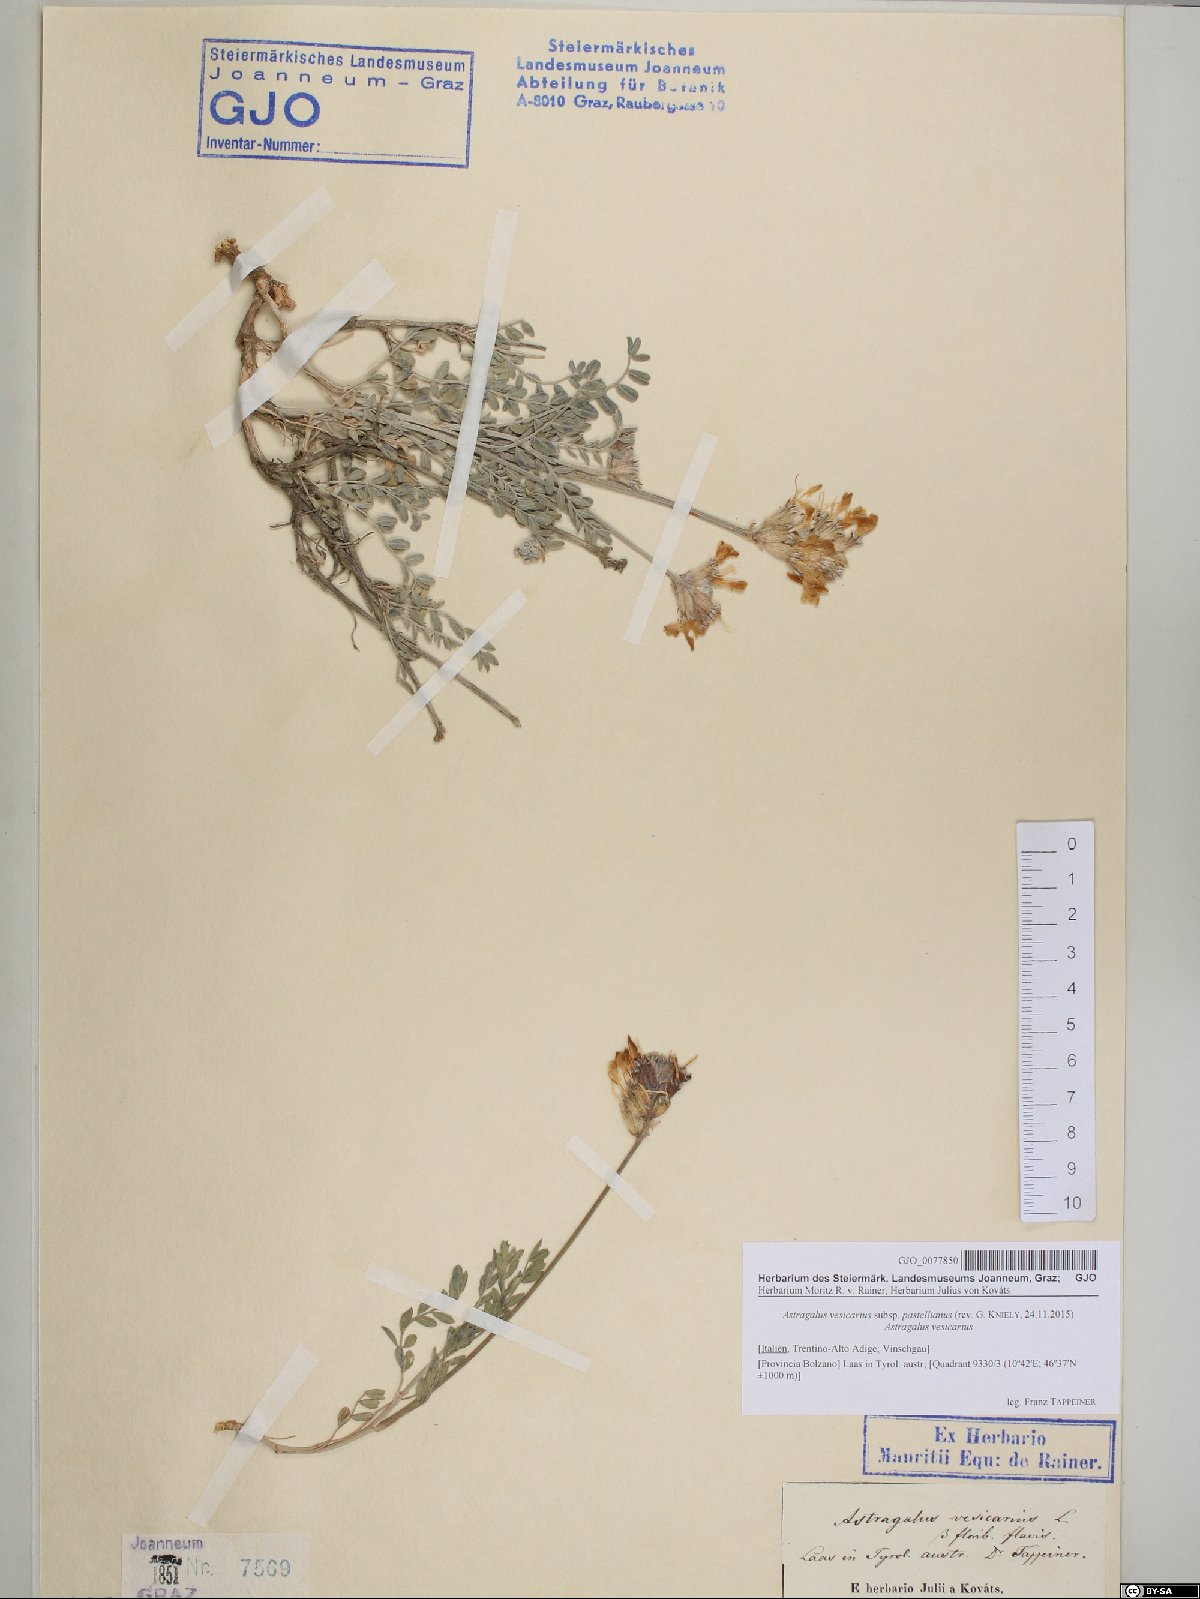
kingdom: Plantae
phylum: Tracheophyta
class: Magnoliopsida
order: Fabales
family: Fabaceae
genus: Astragalus
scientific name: Astragalus vesicarius
